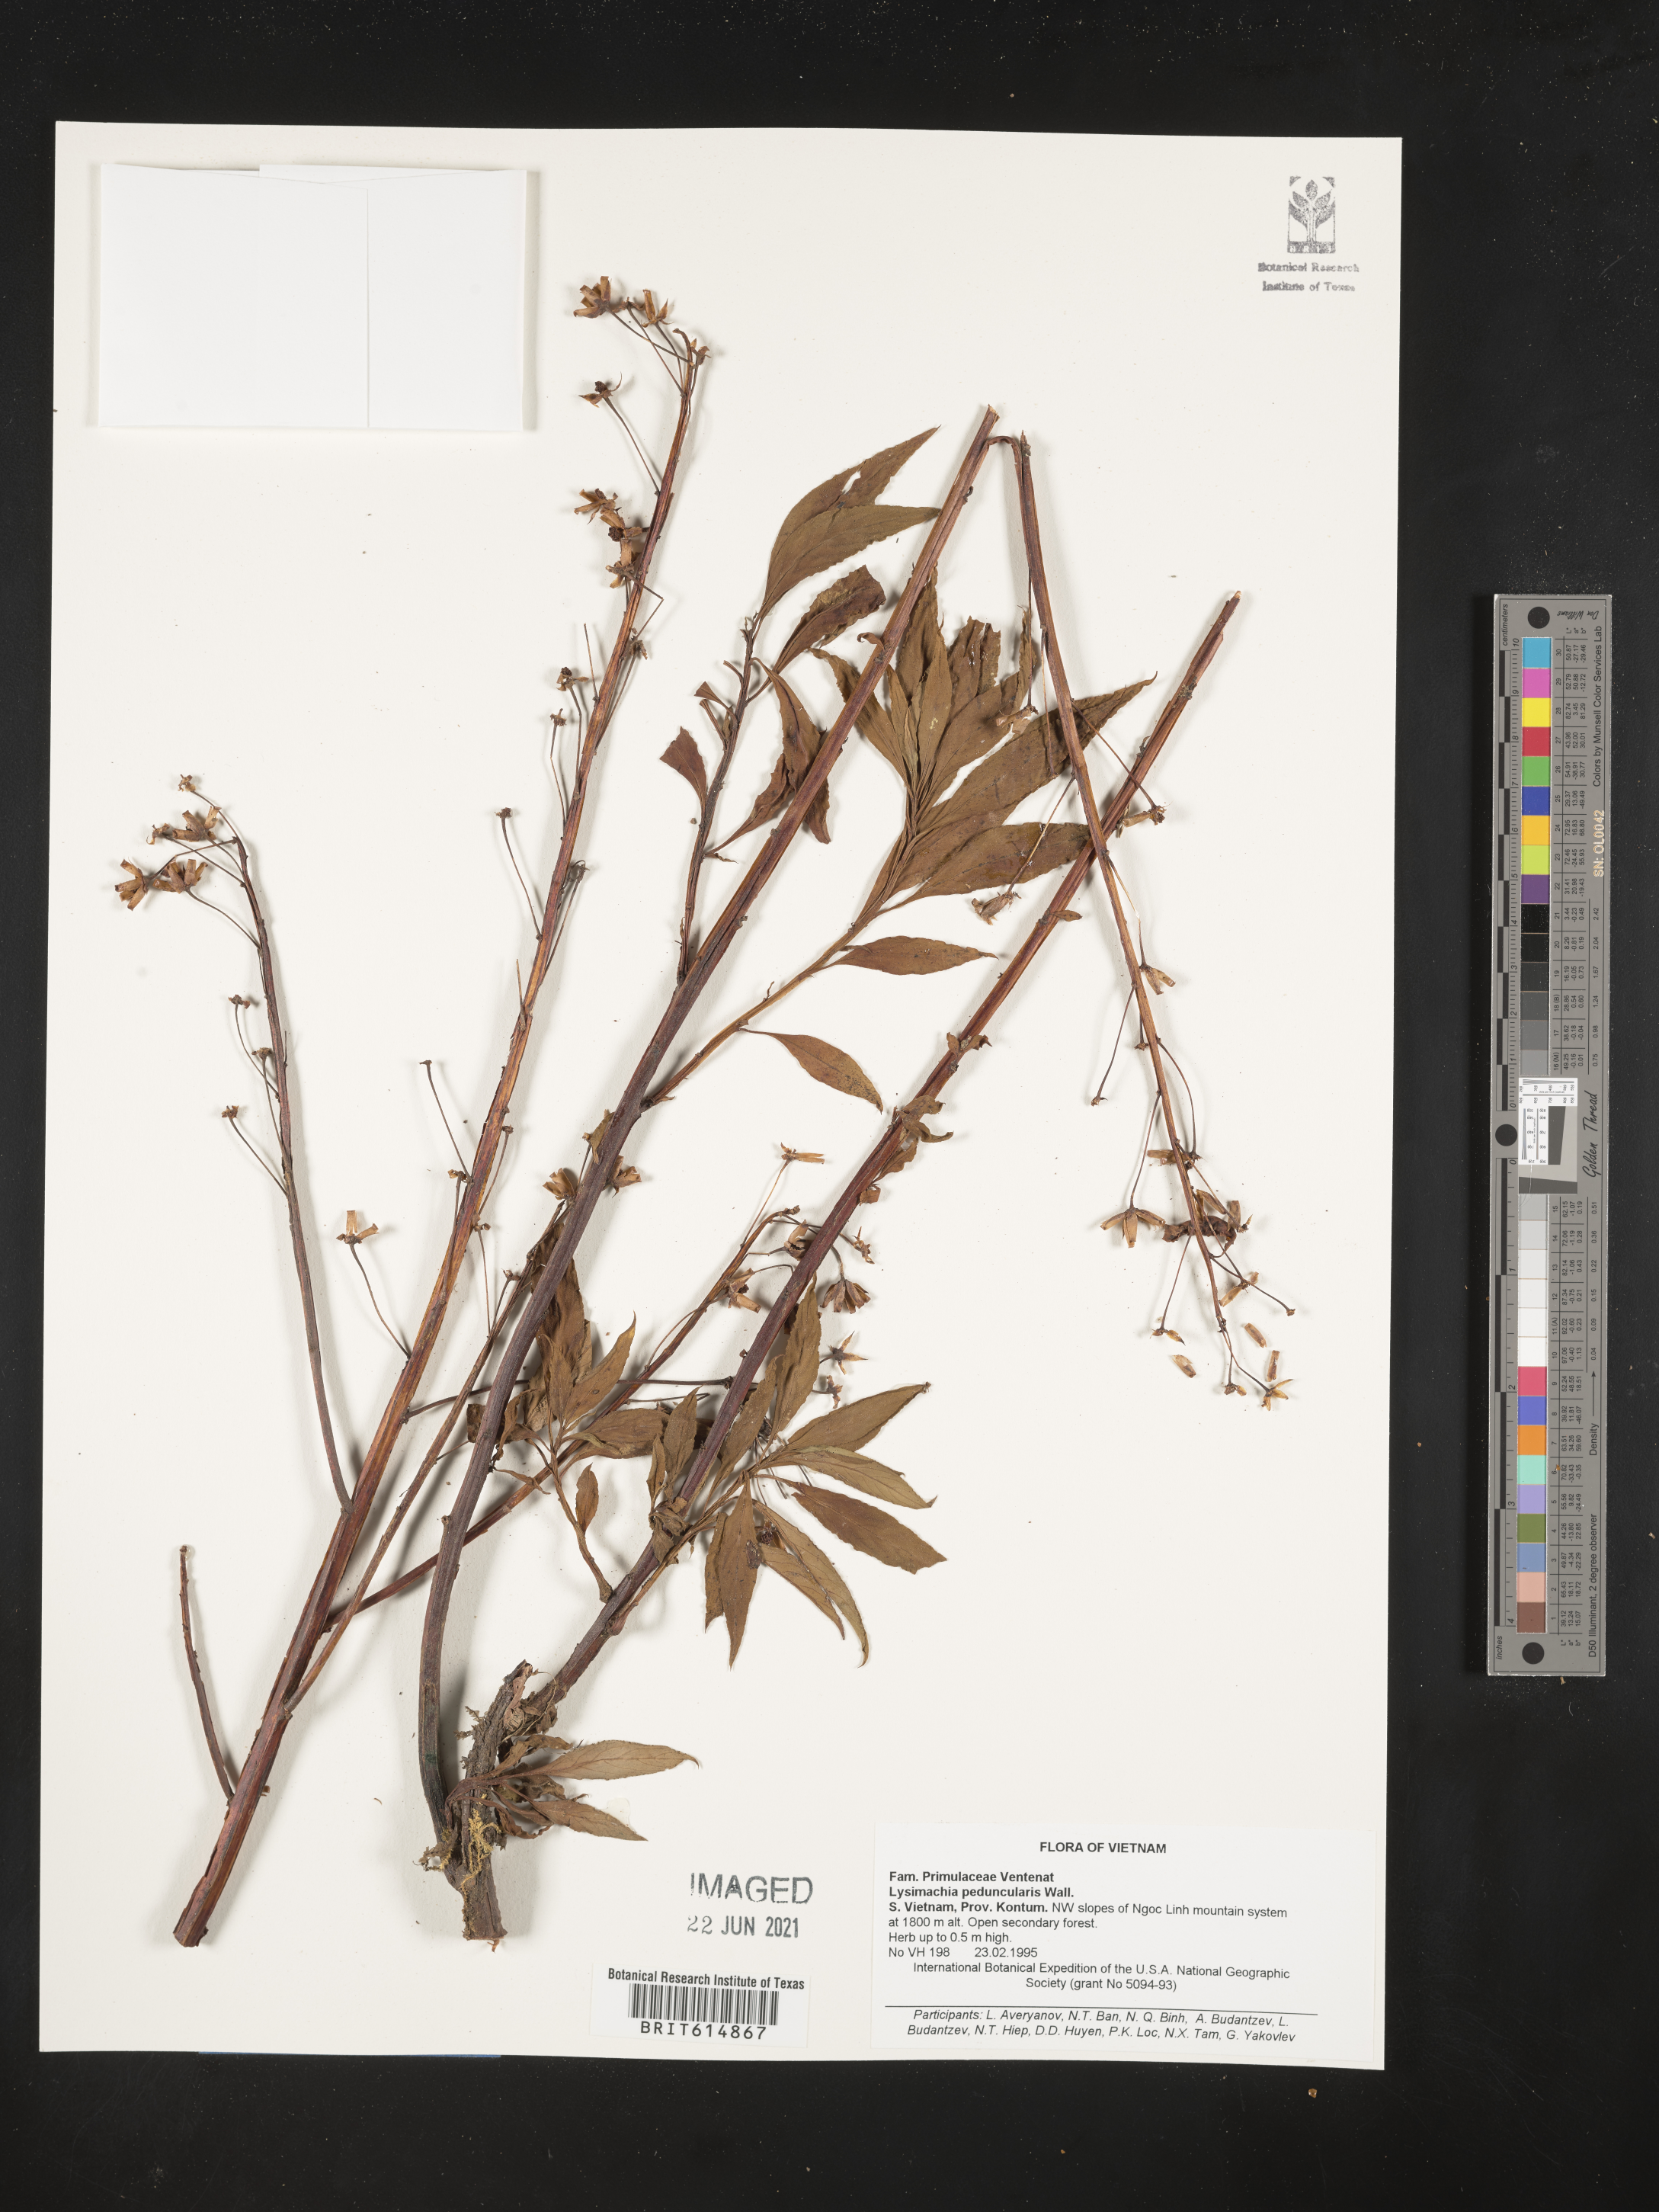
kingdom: Plantae
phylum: Tracheophyta
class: Magnoliopsida
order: Ericales
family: Primulaceae
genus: Lysimachia
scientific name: Lysimachia peduncularis
